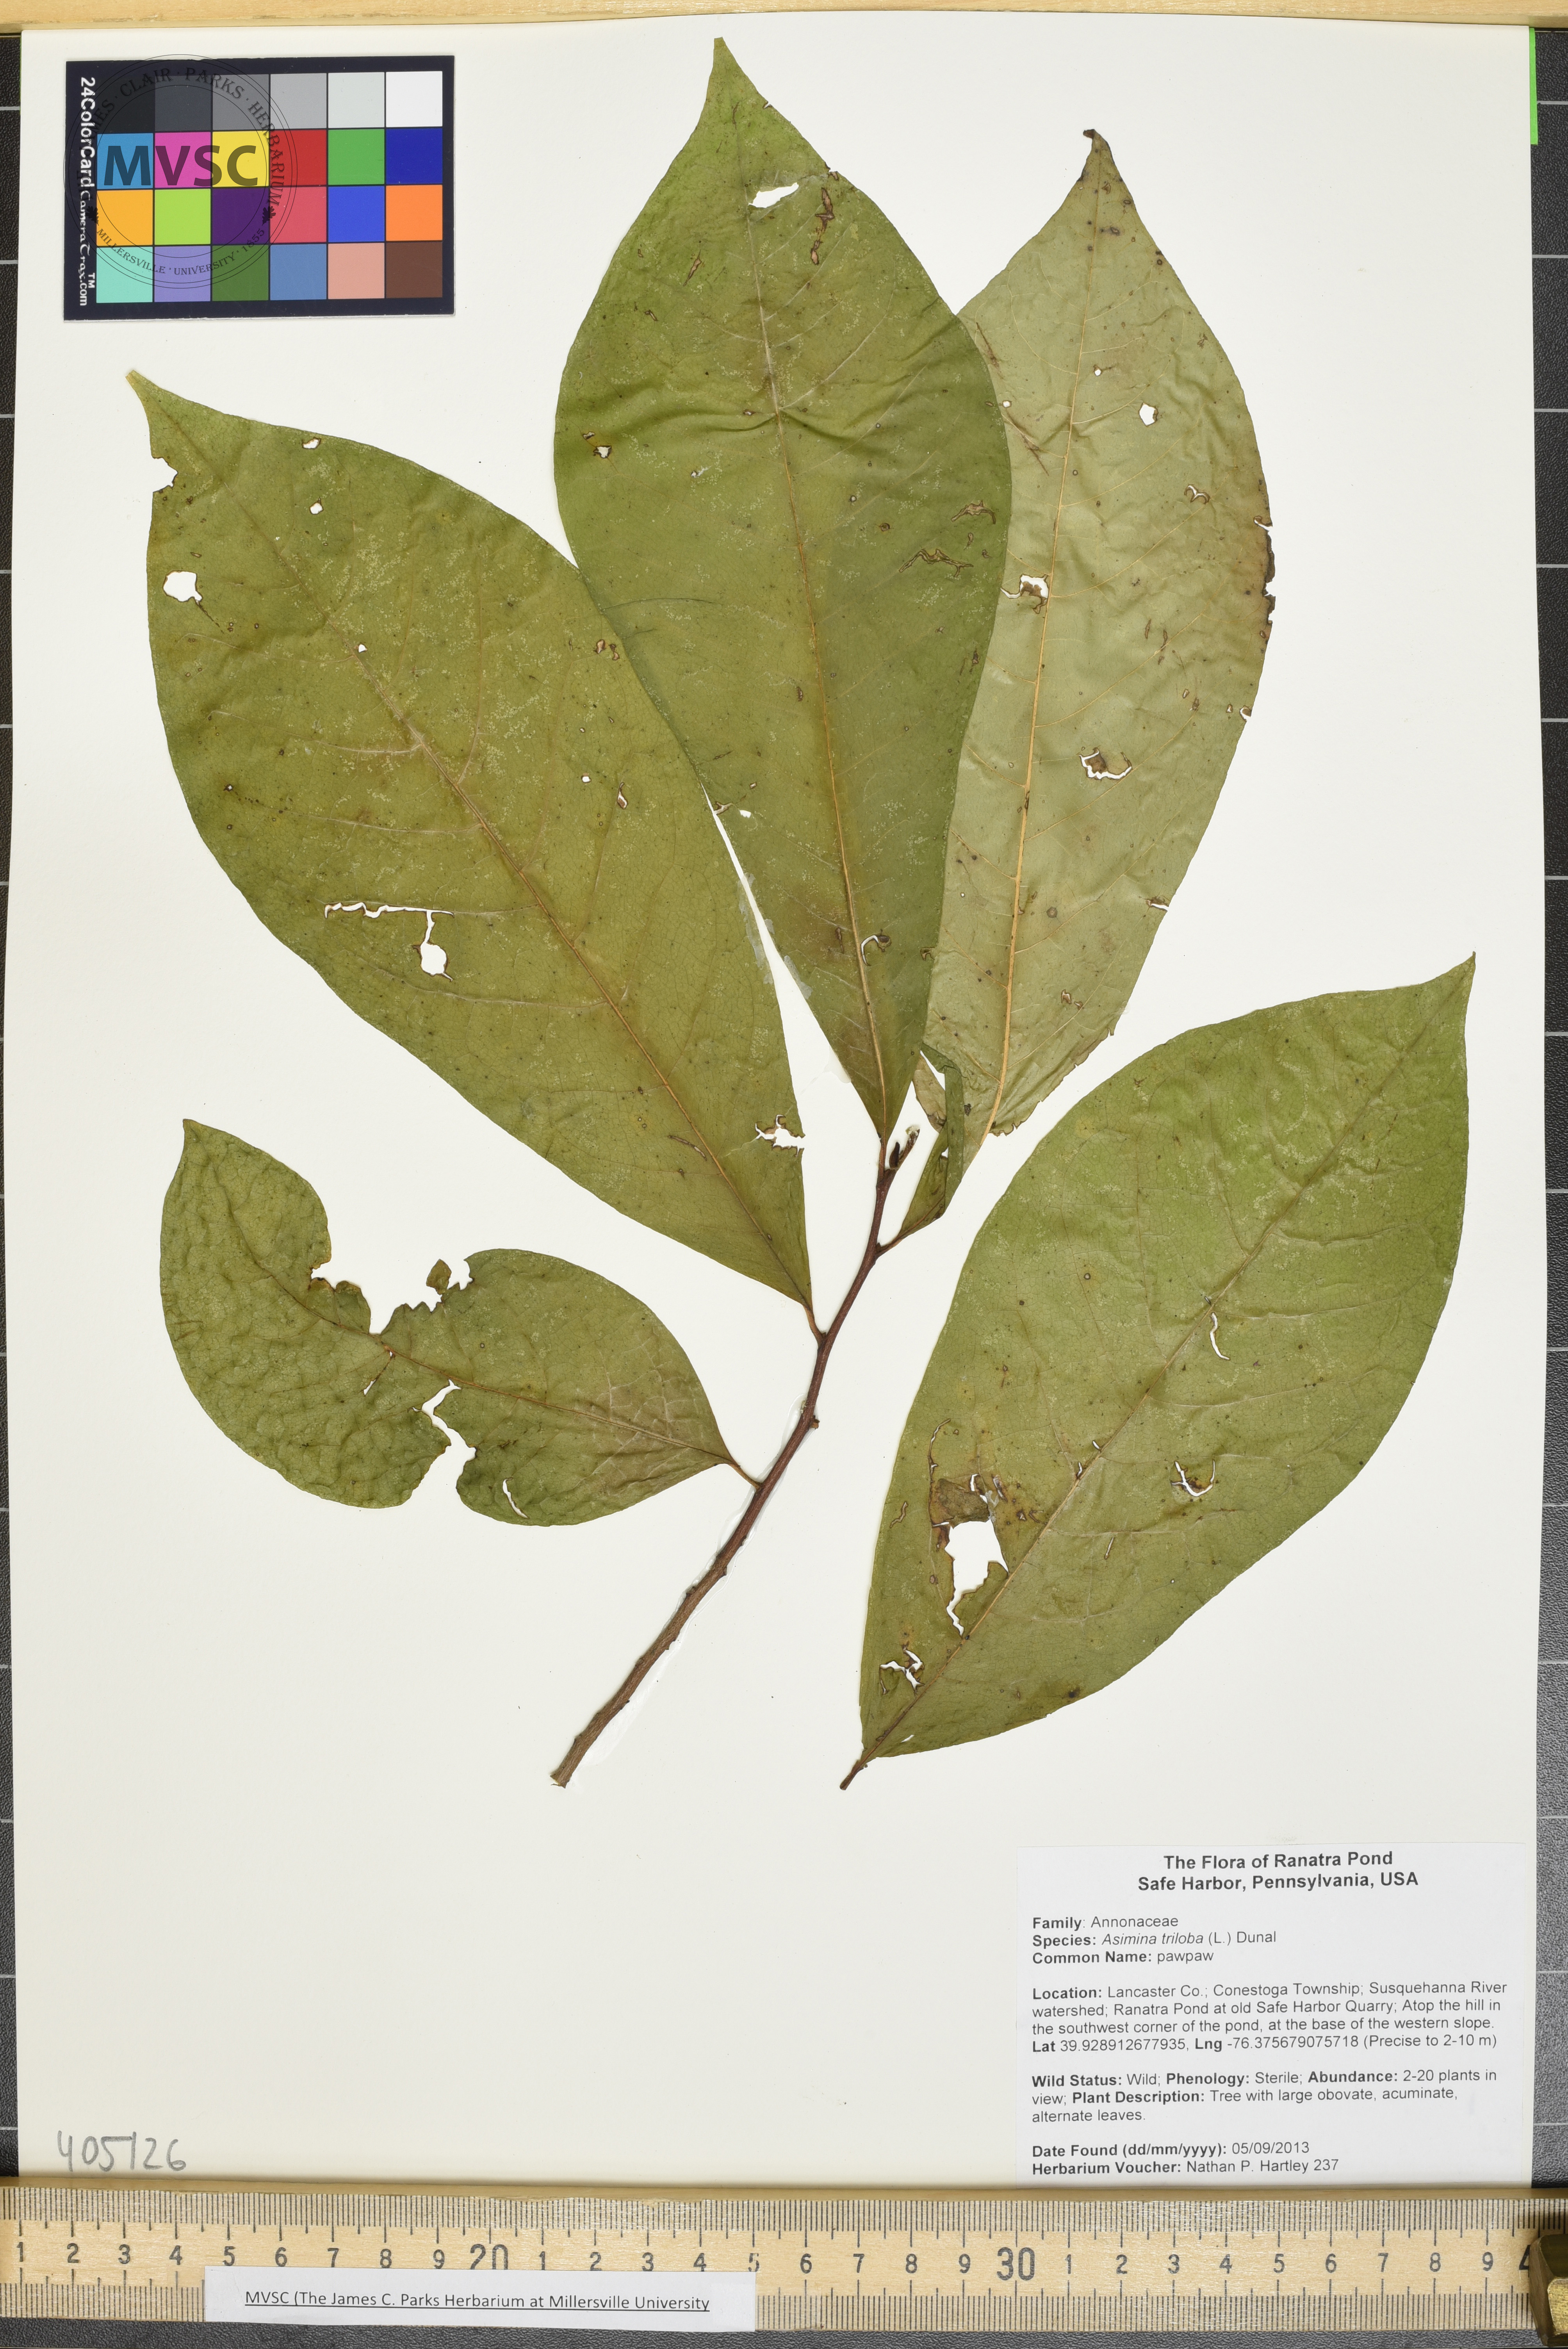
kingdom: Plantae
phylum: Tracheophyta
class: Magnoliopsida
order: Magnoliales
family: Annonaceae
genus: Asimina
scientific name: Asimina triloba
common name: pawpaw
